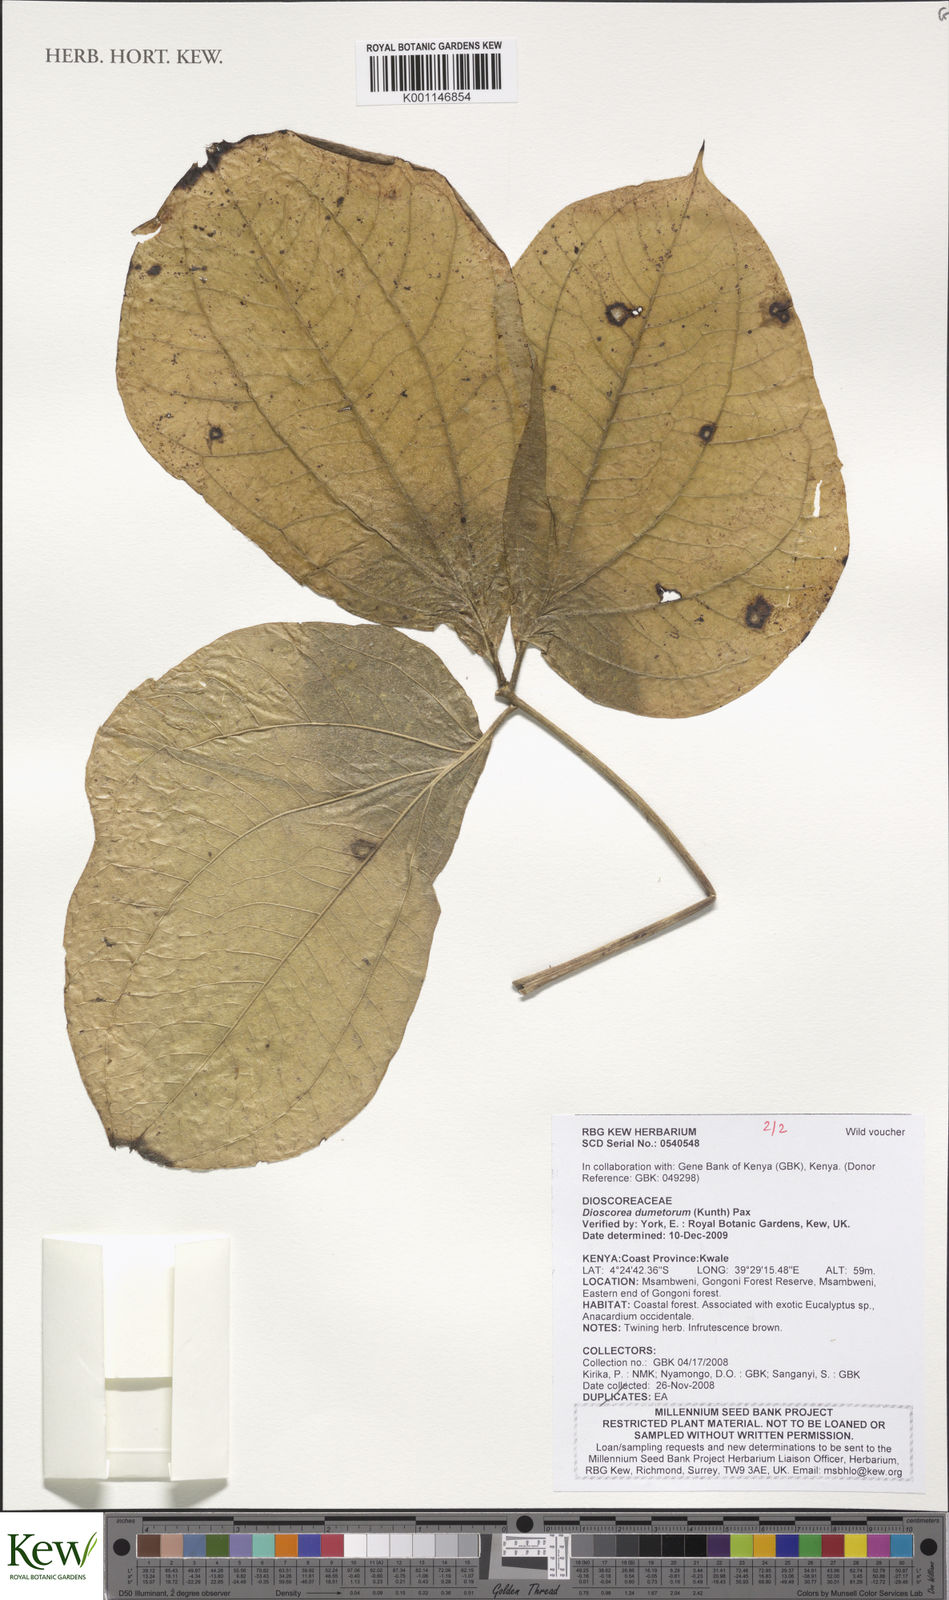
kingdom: Plantae
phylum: Tracheophyta
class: Liliopsida
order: Dioscoreales
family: Dioscoreaceae
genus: Dioscorea
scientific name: Dioscorea dumetorum
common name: African bitter yam
